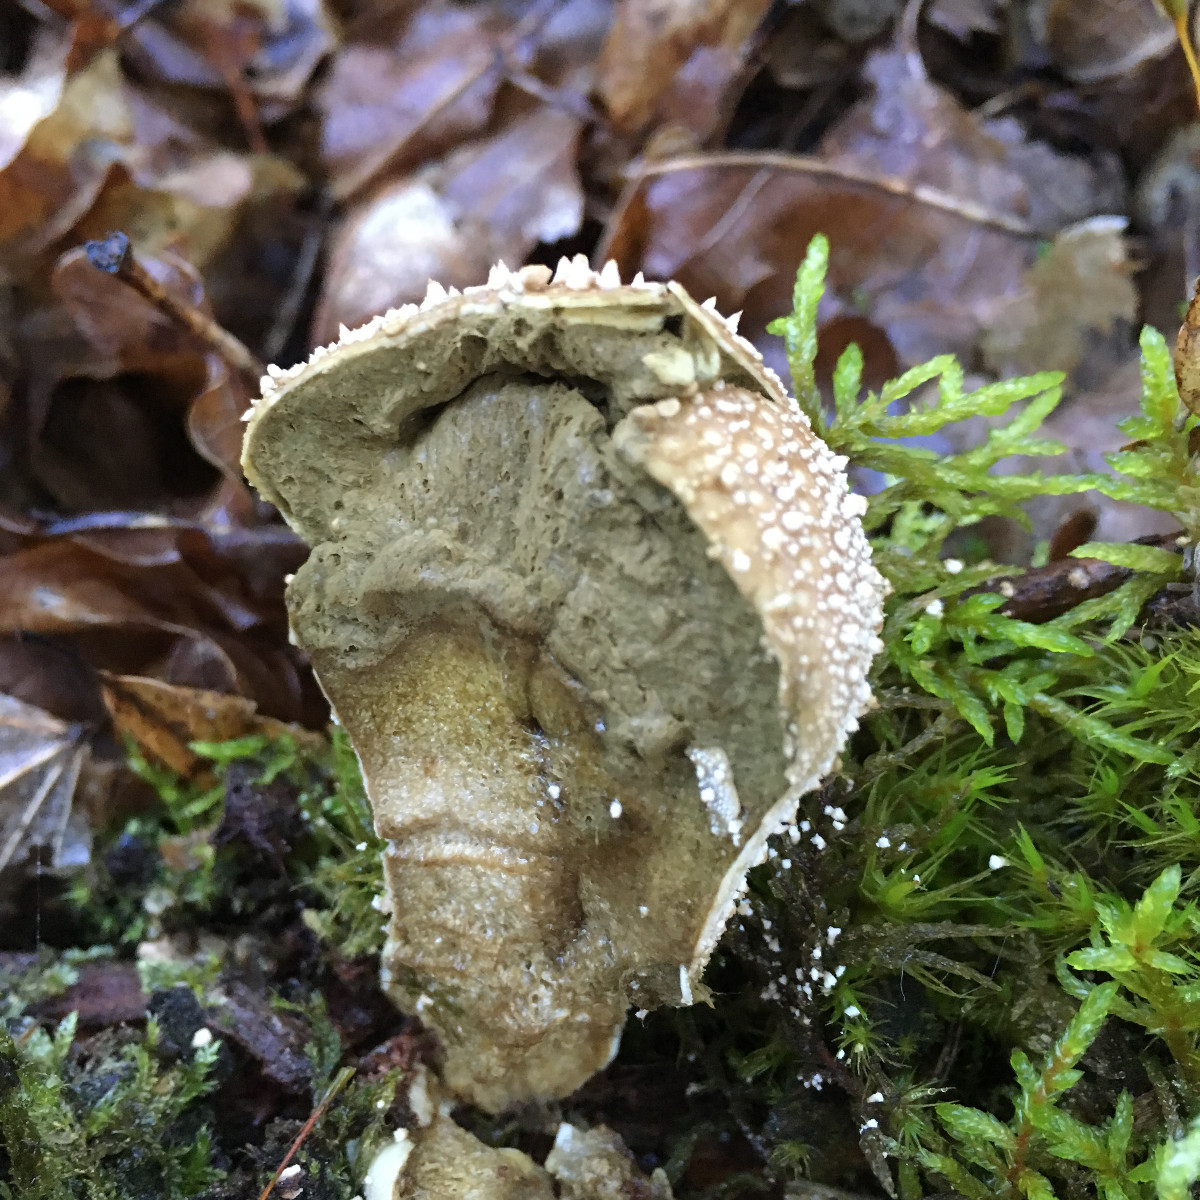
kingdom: Fungi
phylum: Basidiomycota
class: Agaricomycetes
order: Agaricales
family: Lycoperdaceae
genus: Lycoperdon
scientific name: Lycoperdon perlatum
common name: krystal-støvbold
